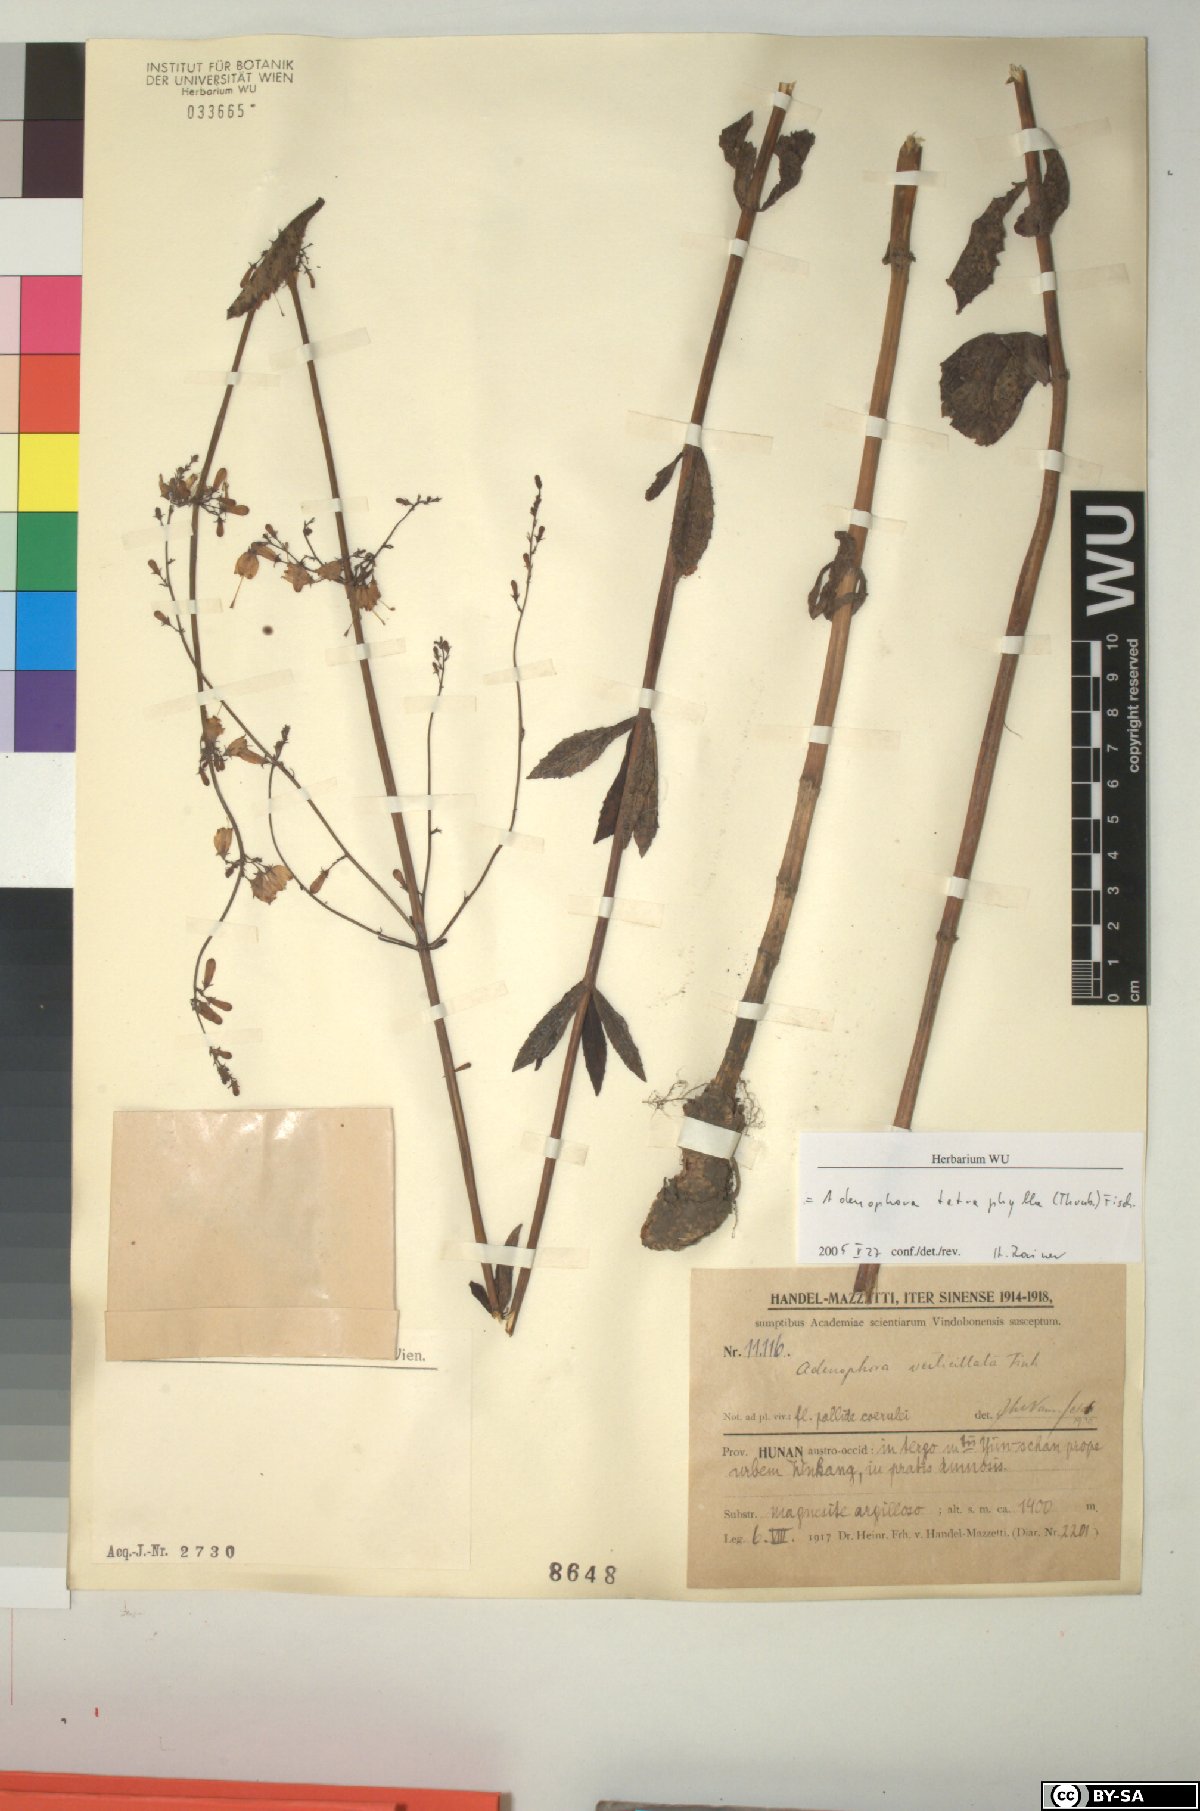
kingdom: Plantae
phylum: Tracheophyta
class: Magnoliopsida
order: Asterales
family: Campanulaceae
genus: Adenophora
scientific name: Adenophora triphylla
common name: Giant-bellflower
